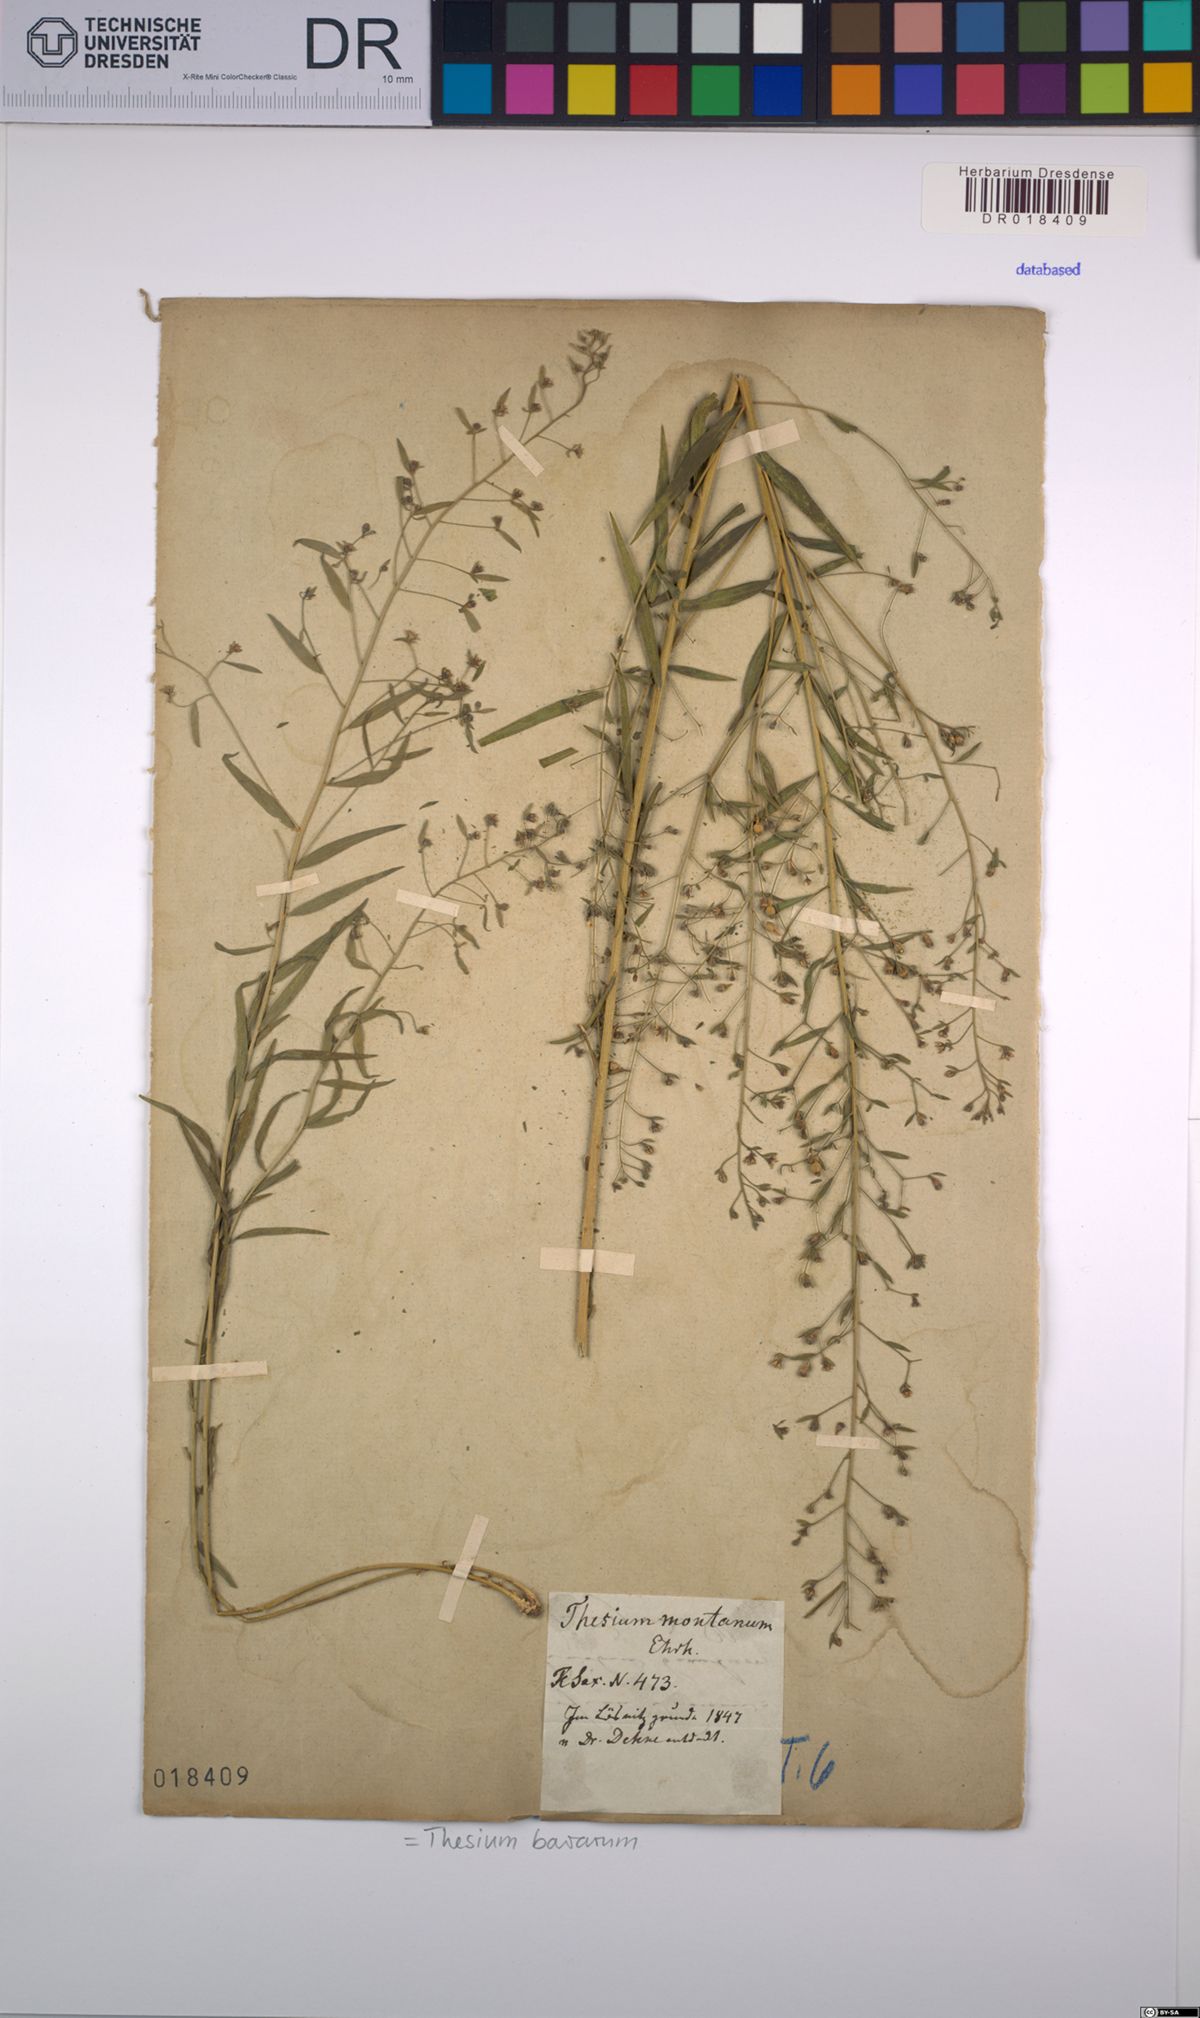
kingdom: Plantae
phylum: Tracheophyta
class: Magnoliopsida
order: Santalales
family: Thesiaceae
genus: Thesium
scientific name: Thesium bavarum
